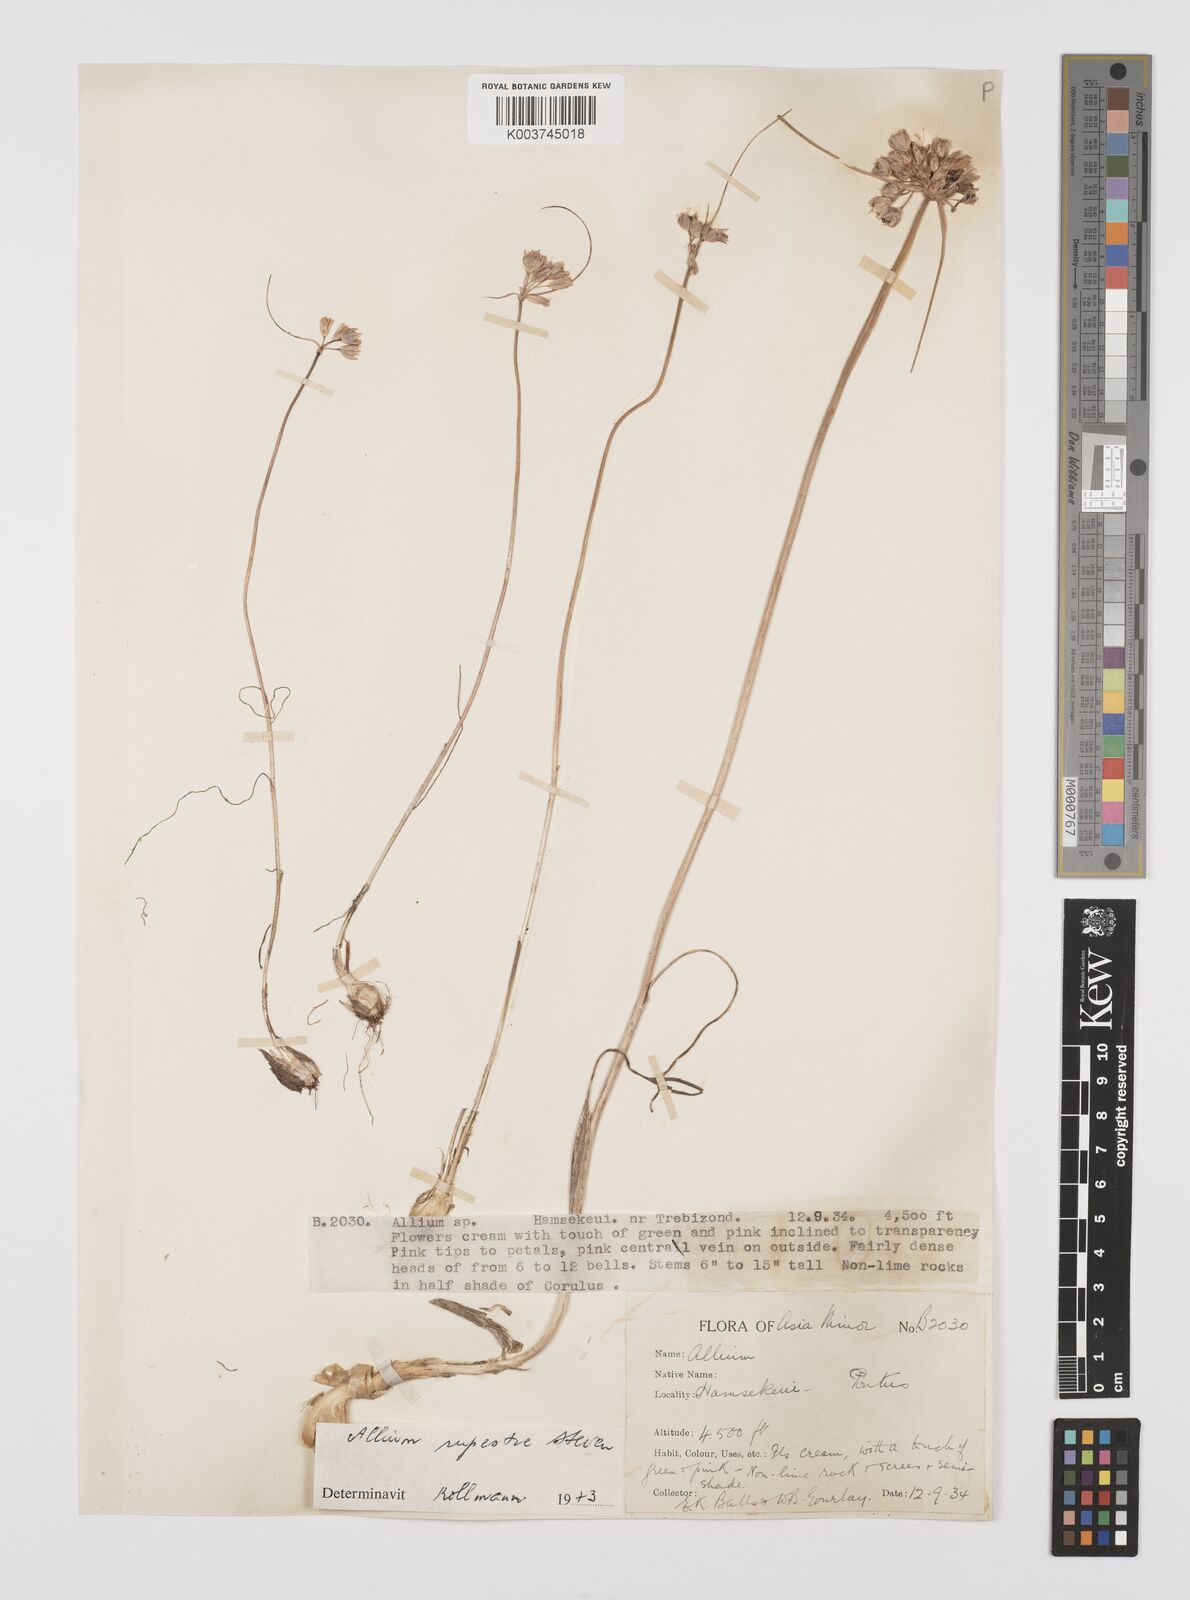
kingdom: Plantae
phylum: Tracheophyta
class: Liliopsida
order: Asparagales
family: Amaryllidaceae
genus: Allium
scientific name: Allium rupestre
